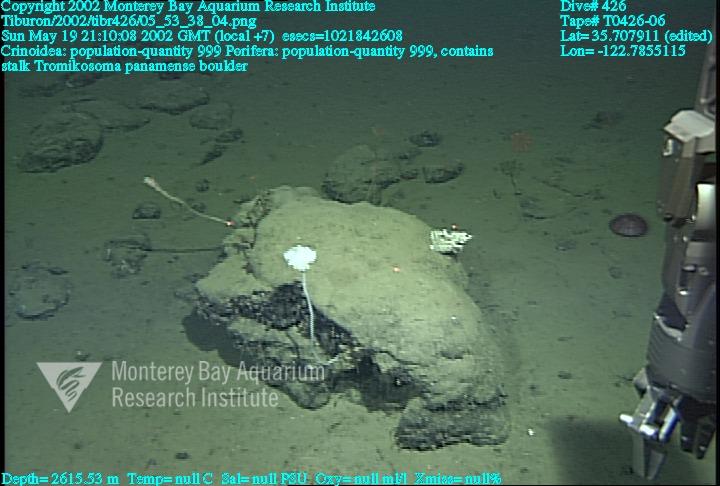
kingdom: Animalia
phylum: Porifera
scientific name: Porifera
